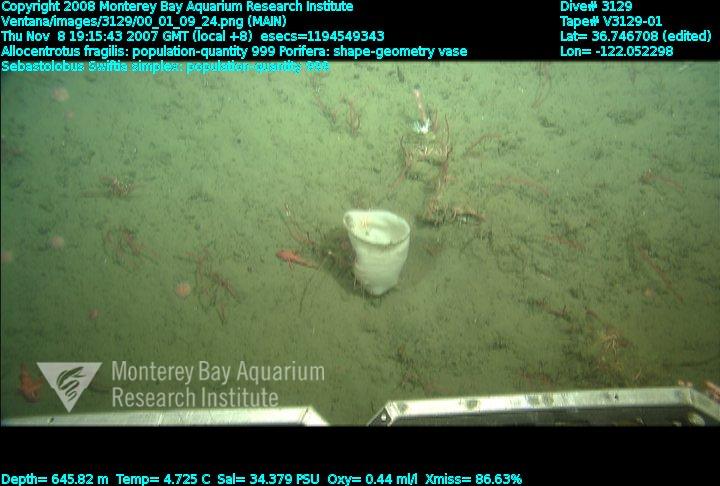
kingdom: Animalia
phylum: Porifera
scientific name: Porifera
